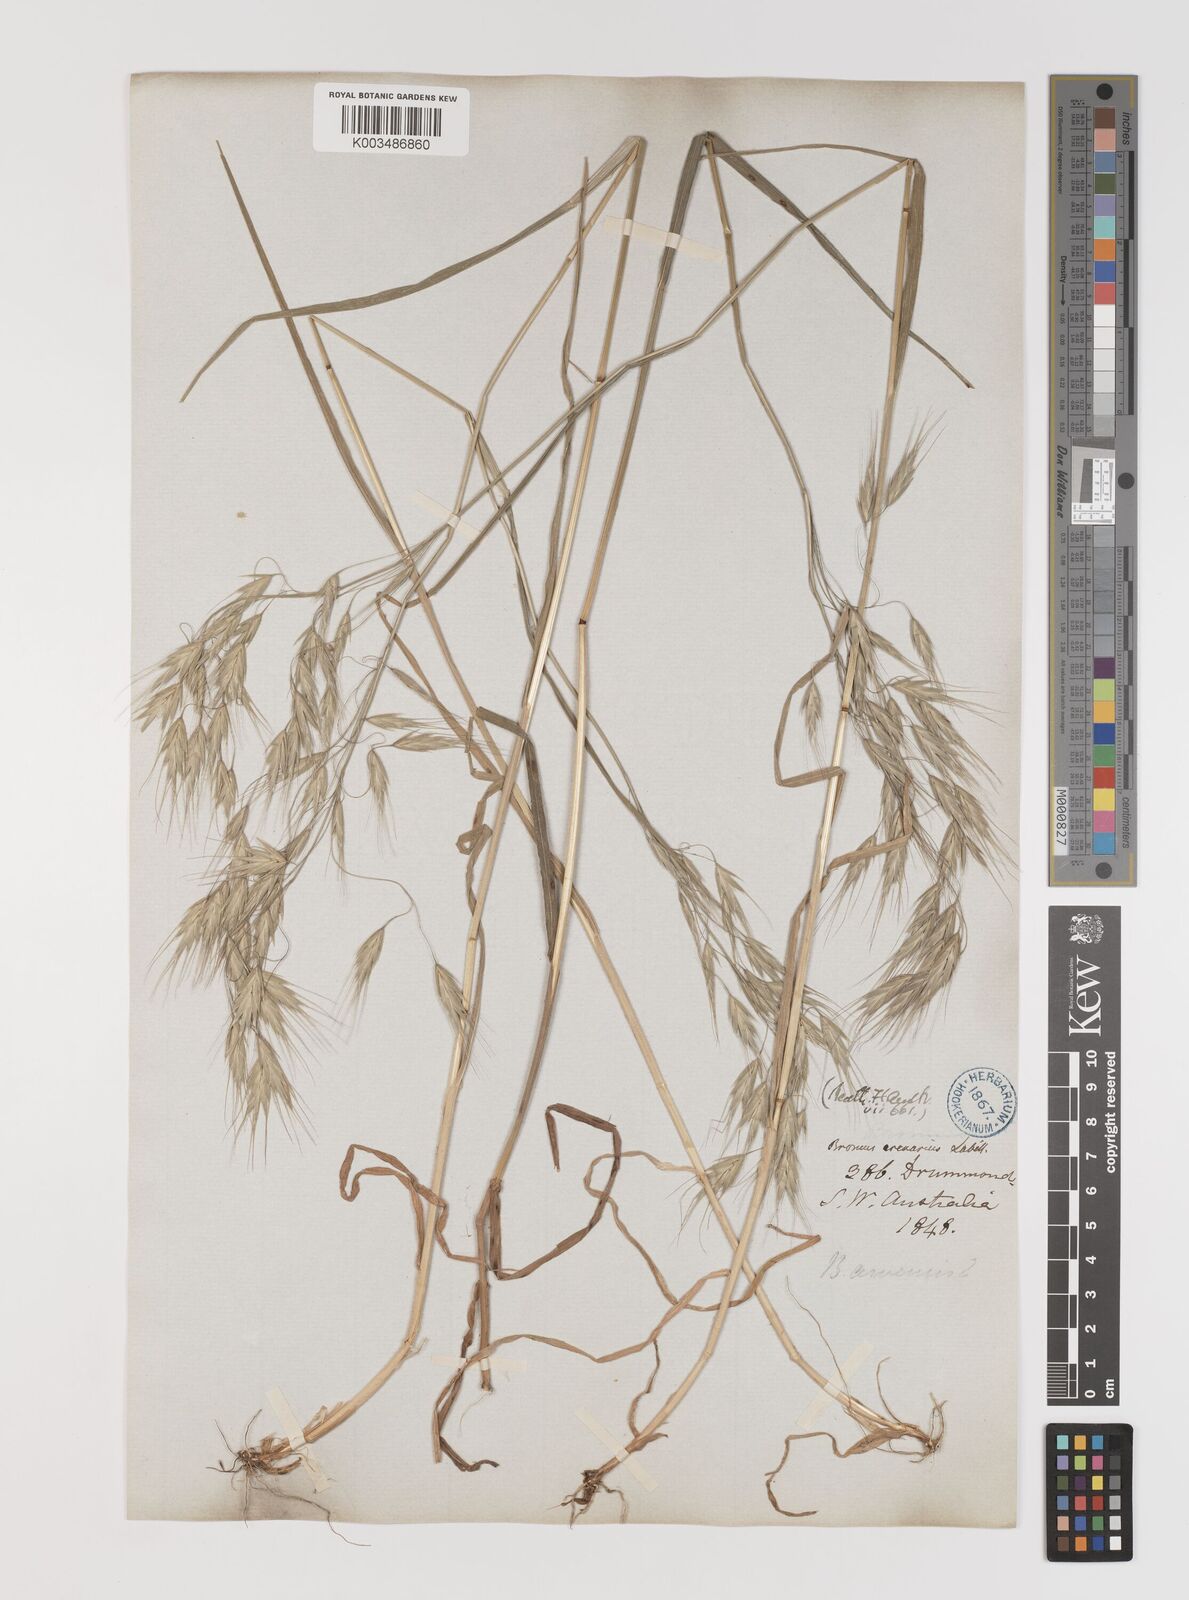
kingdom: Plantae
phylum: Tracheophyta
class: Liliopsida
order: Poales
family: Poaceae
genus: Bromus
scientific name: Bromus arenarius
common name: Australian brome
